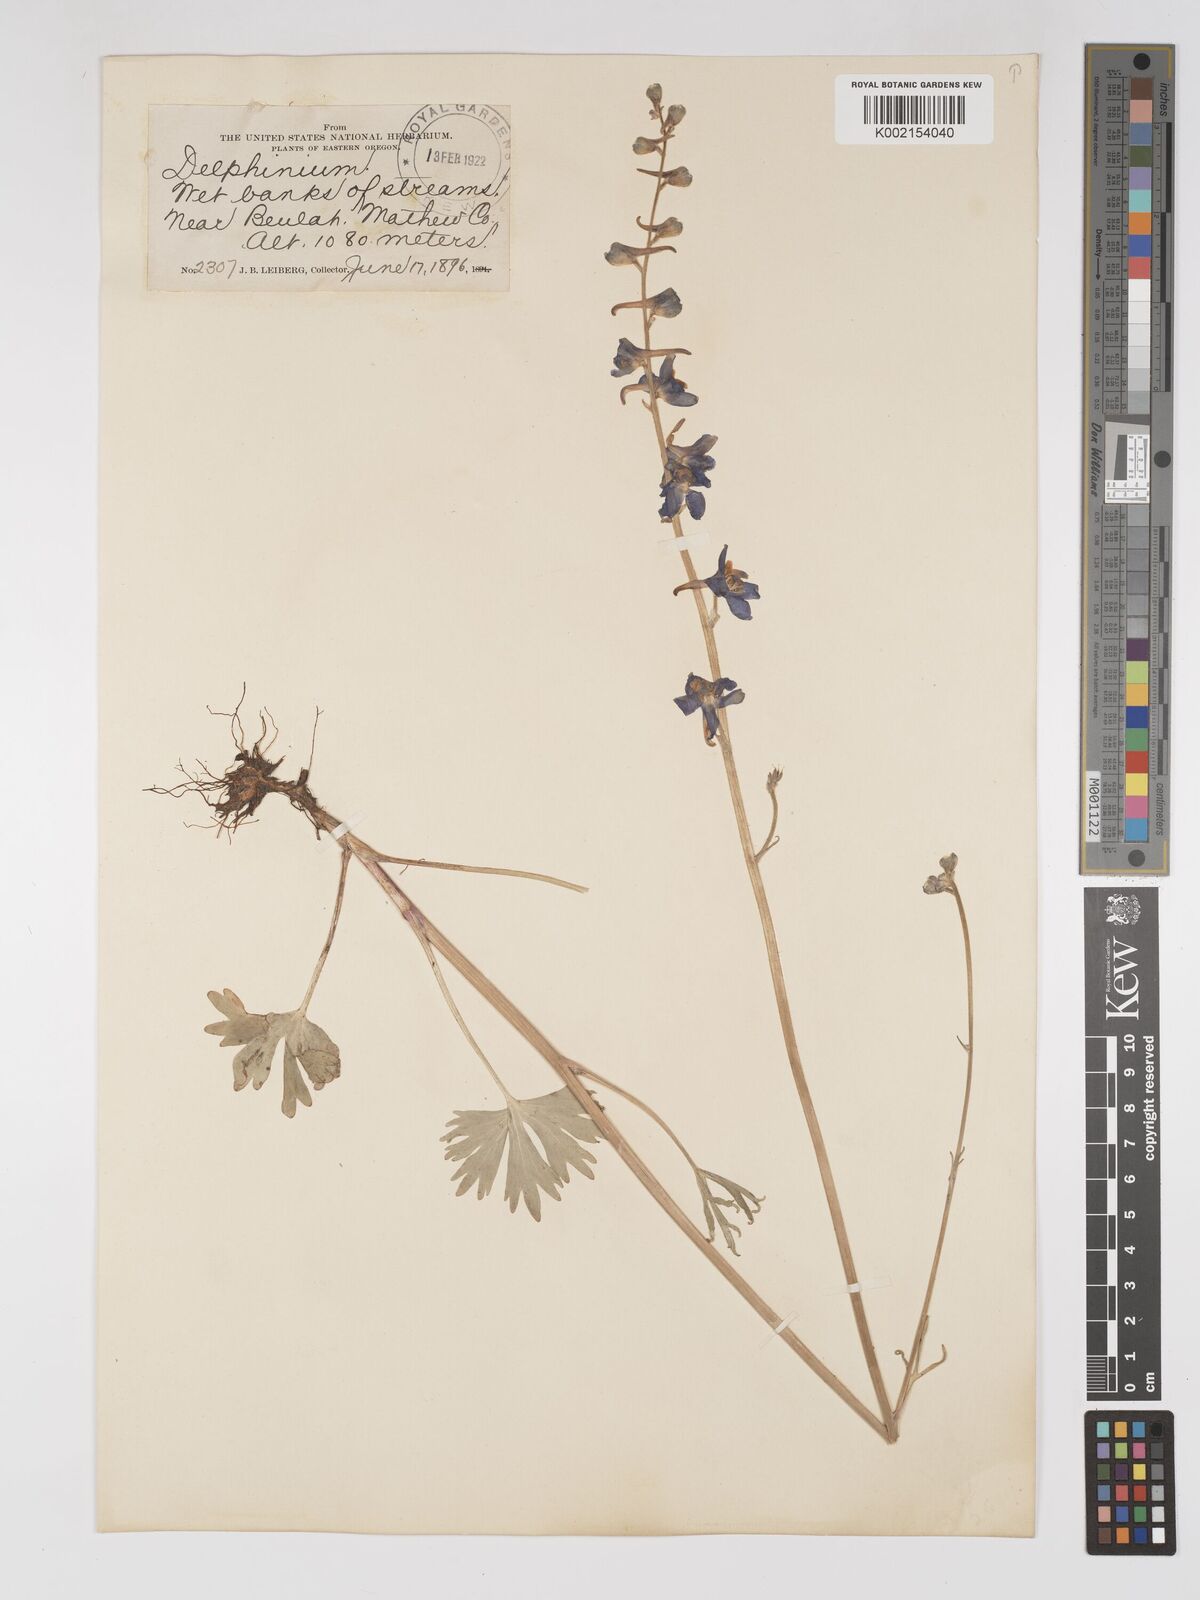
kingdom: Plantae
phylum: Tracheophyta
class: Magnoliopsida
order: Ranunculales
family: Ranunculaceae
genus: Delphinium
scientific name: Delphinium
